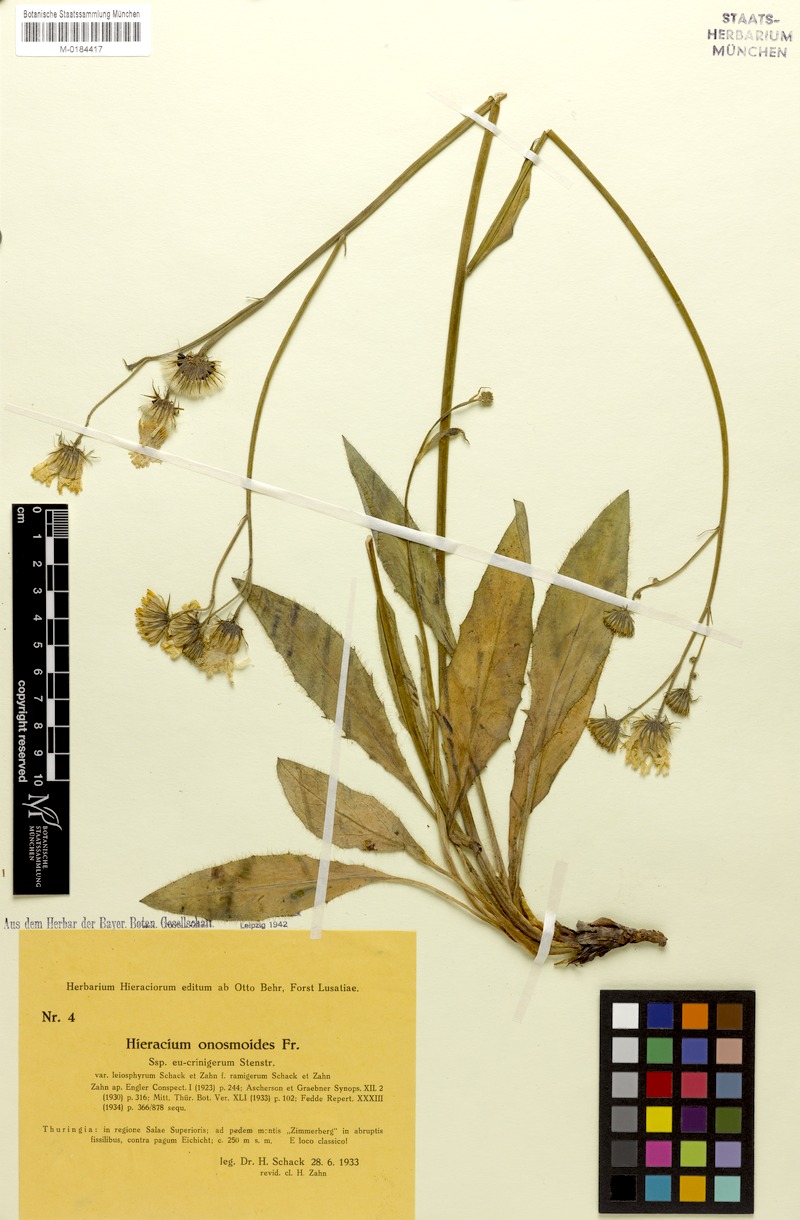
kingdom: Plantae
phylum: Tracheophyta
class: Magnoliopsida
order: Asterales
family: Asteraceae
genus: Hieracium
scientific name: Hieracium onosmoides
